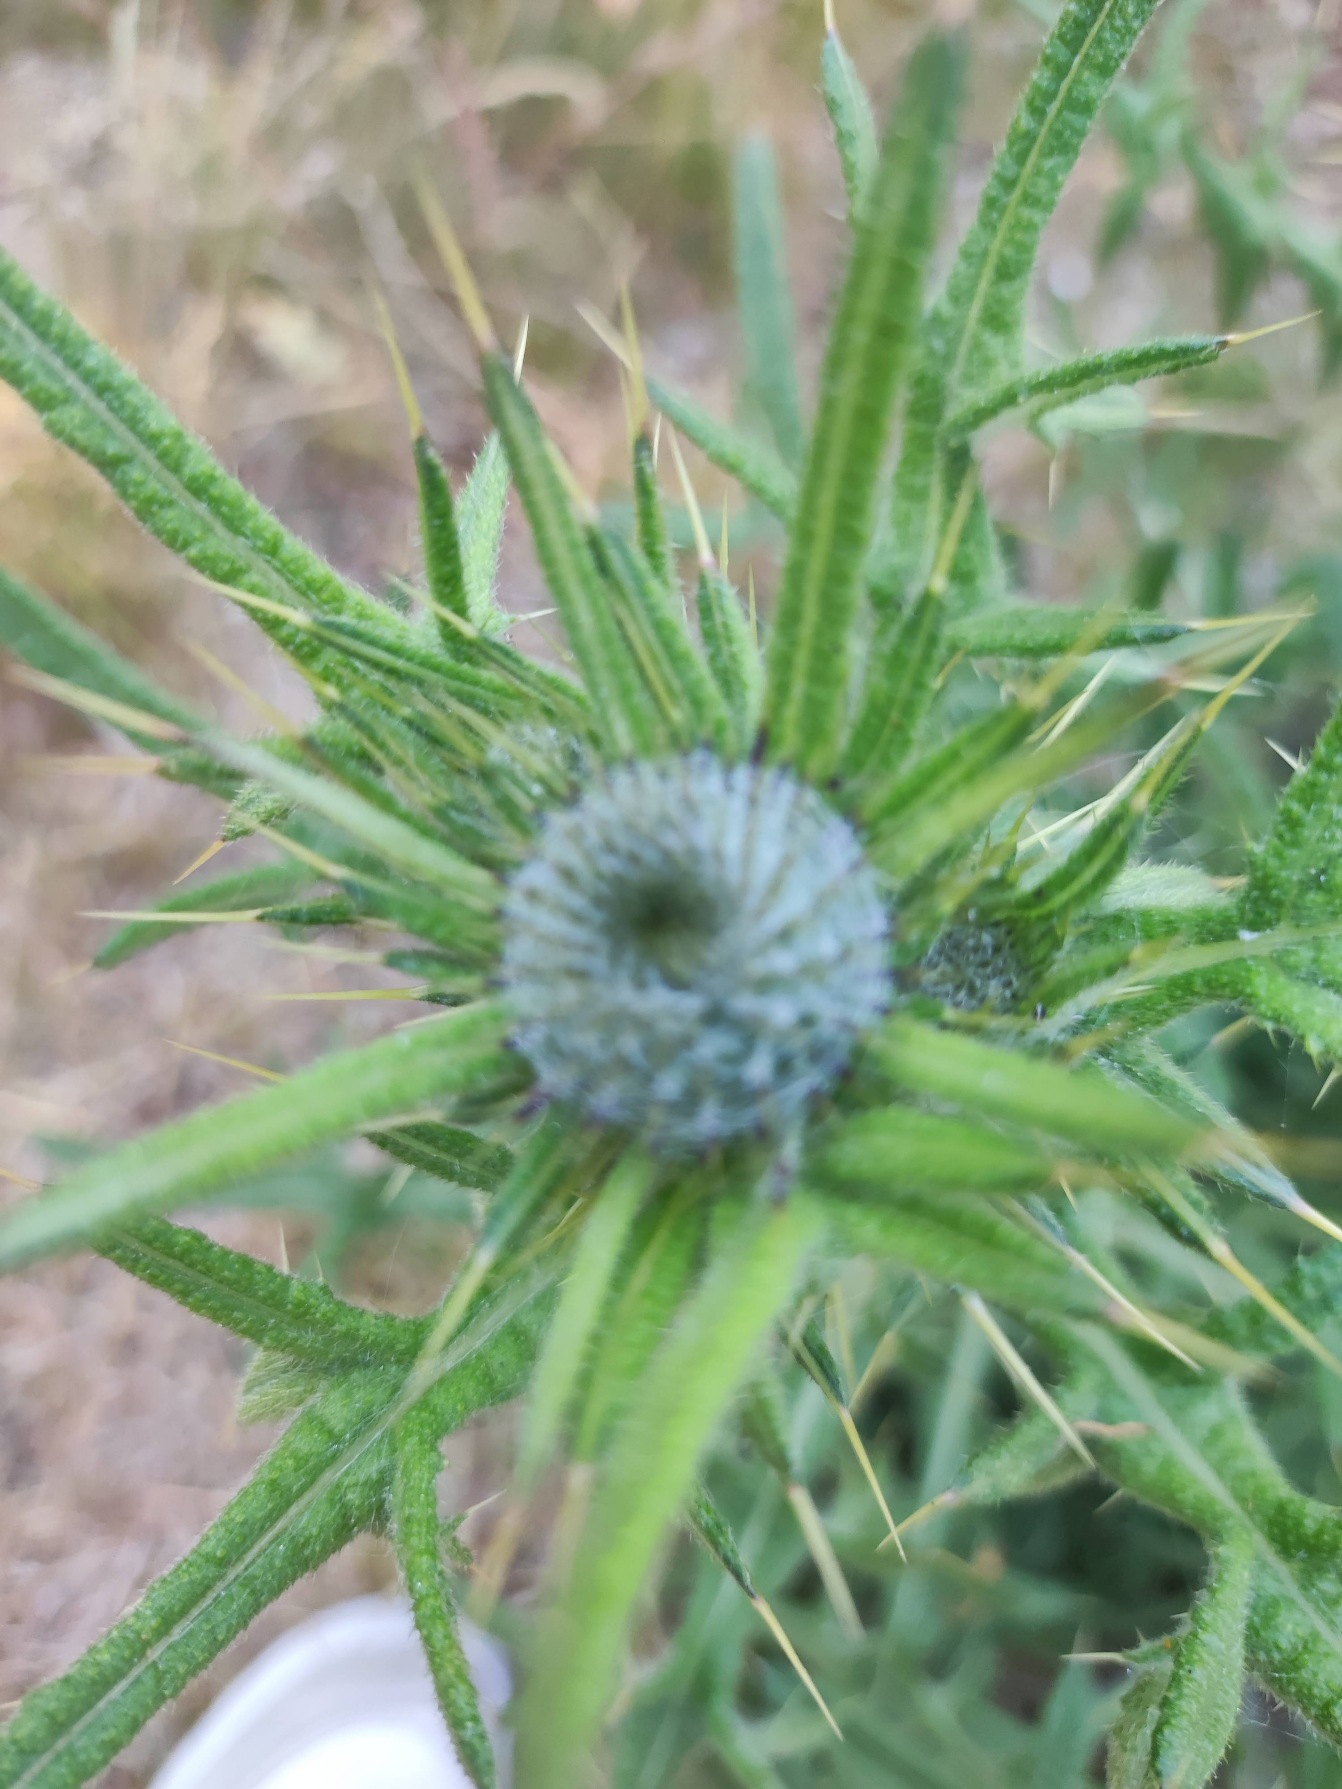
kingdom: Plantae
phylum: Tracheophyta
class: Magnoliopsida
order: Asterales
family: Asteraceae
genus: Cirsium
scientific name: Cirsium vulgare
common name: Horse-tidsel
